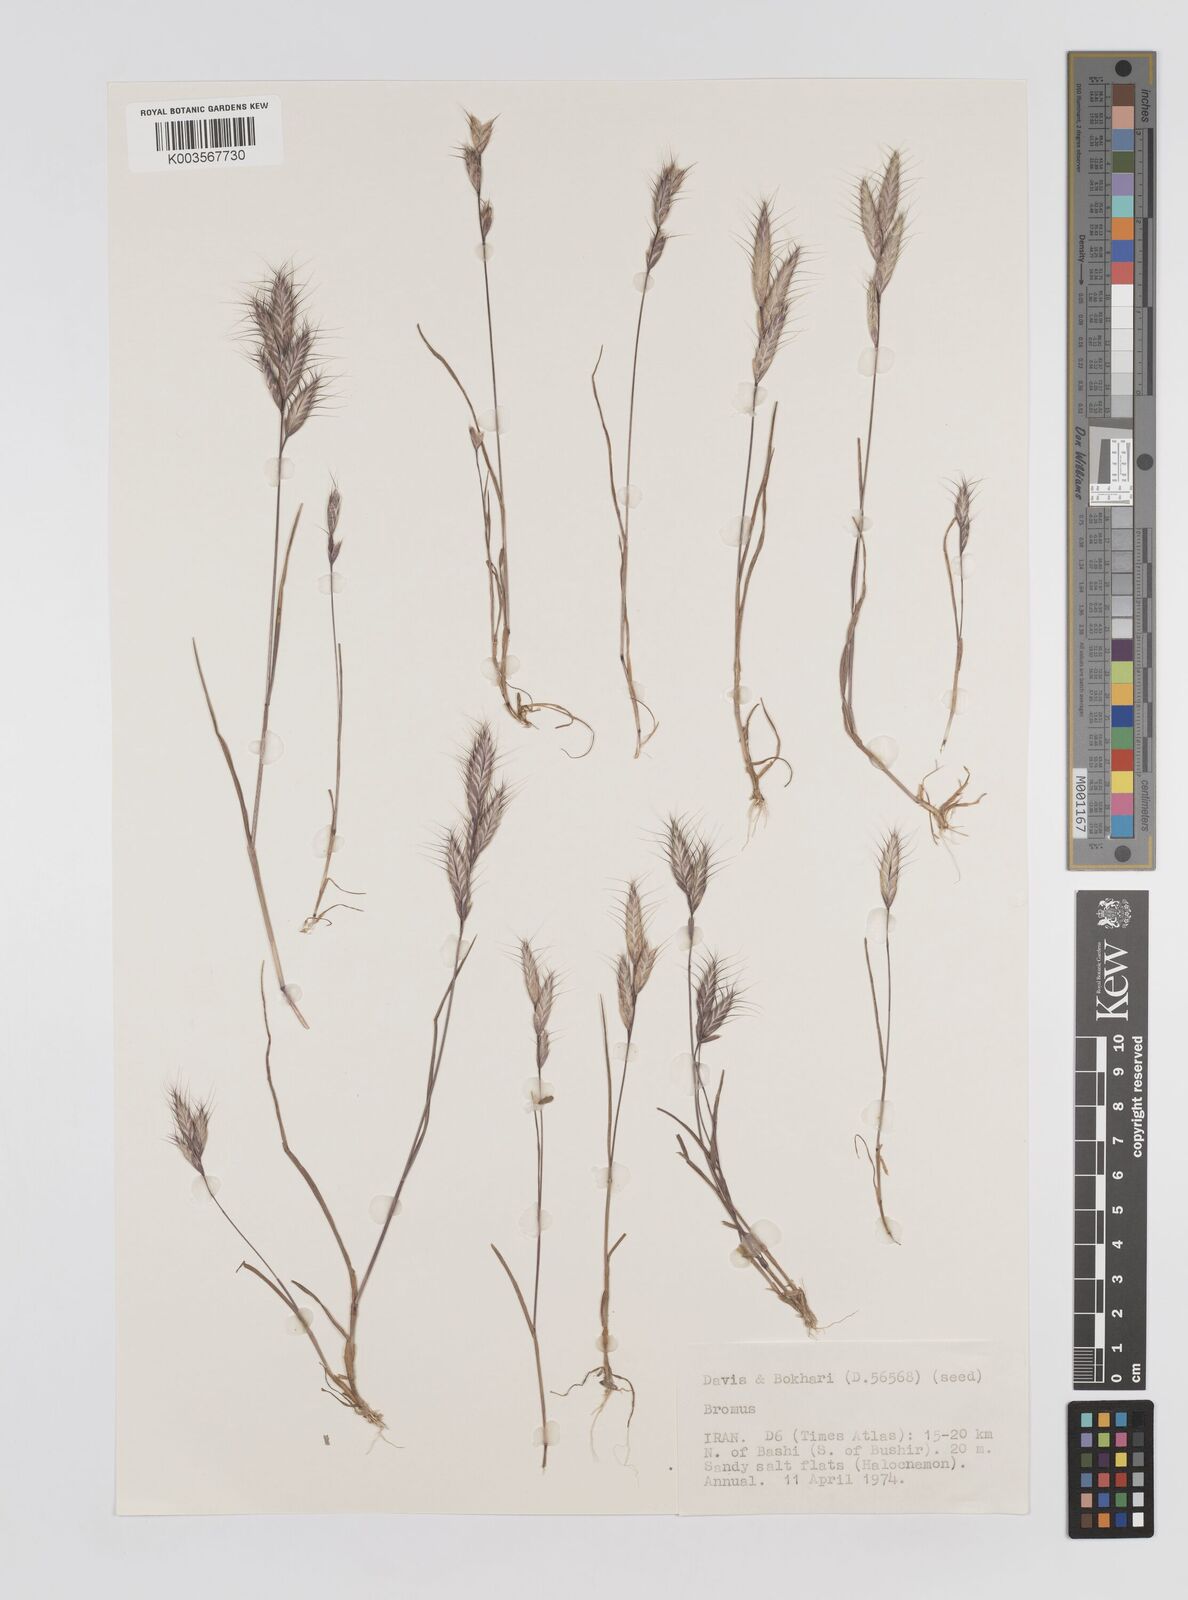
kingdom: Plantae
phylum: Tracheophyta
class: Liliopsida
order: Poales
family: Poaceae
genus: Bromus
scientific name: Bromus
